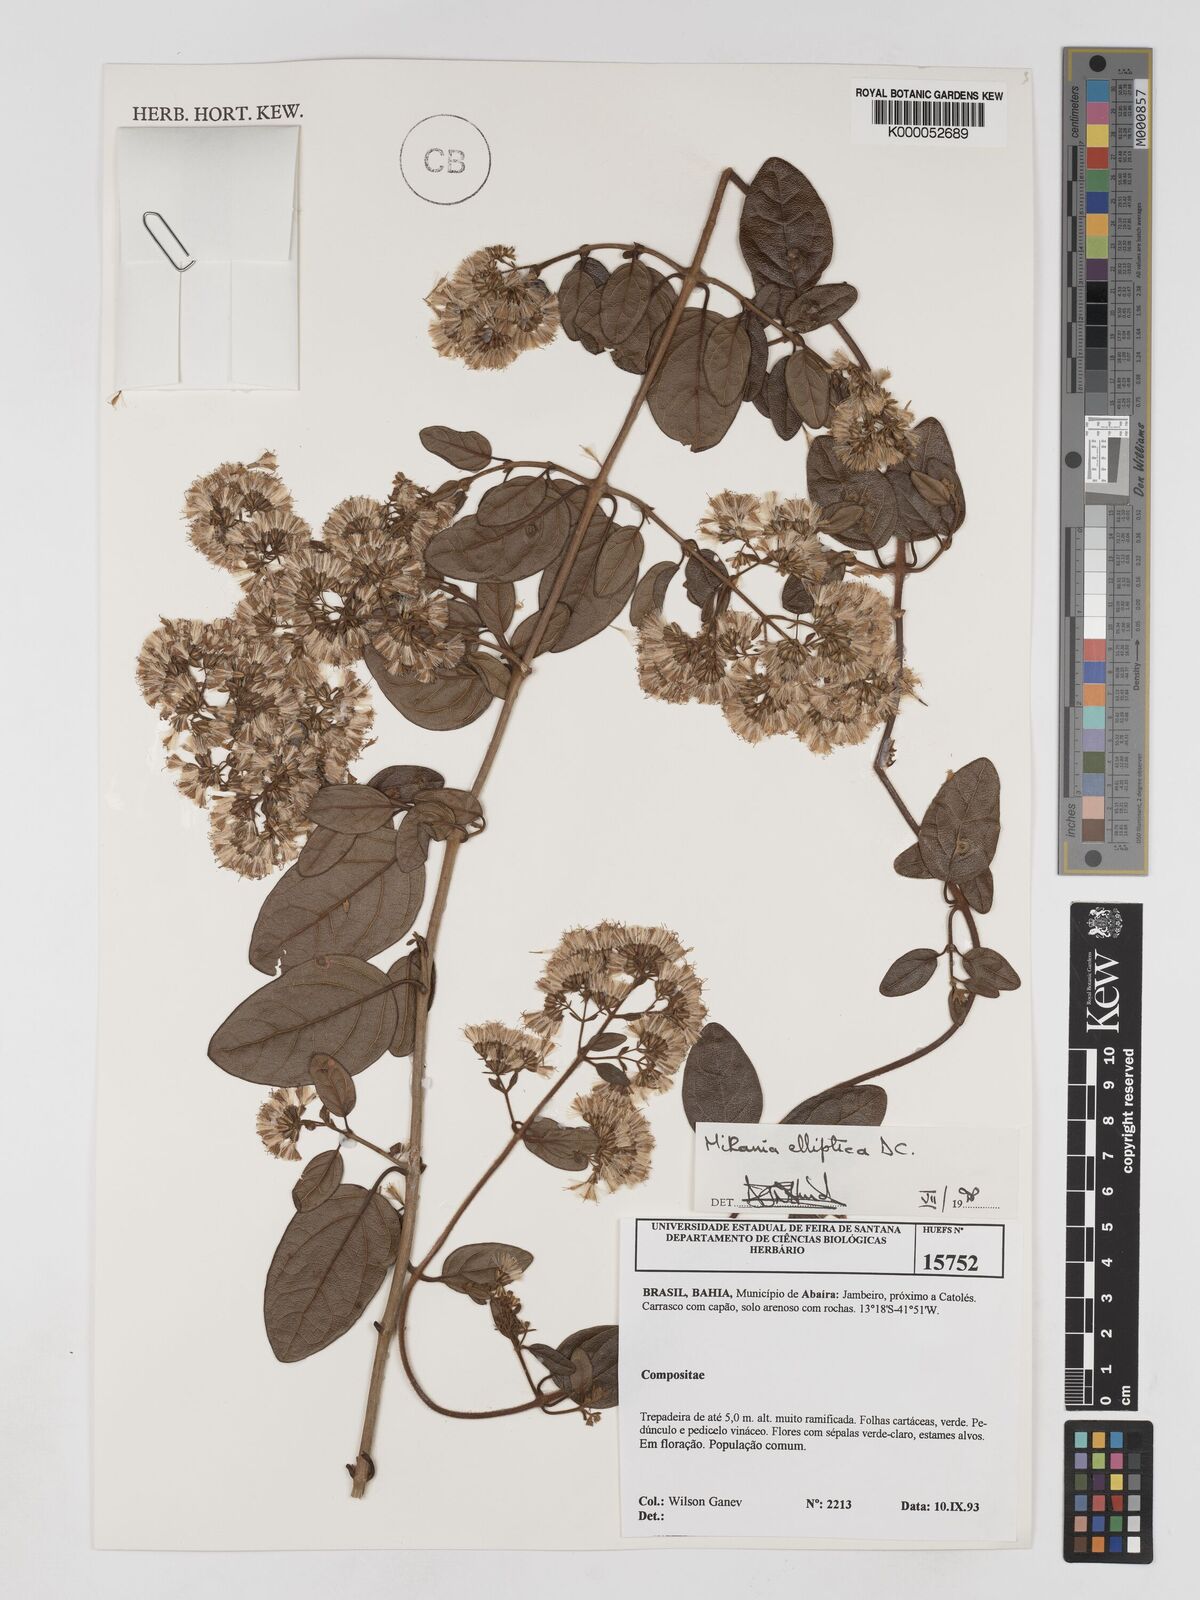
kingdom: Plantae
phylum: Tracheophyta
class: Magnoliopsida
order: Asterales
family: Asteraceae
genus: Mikania
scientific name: Mikania elliptica
